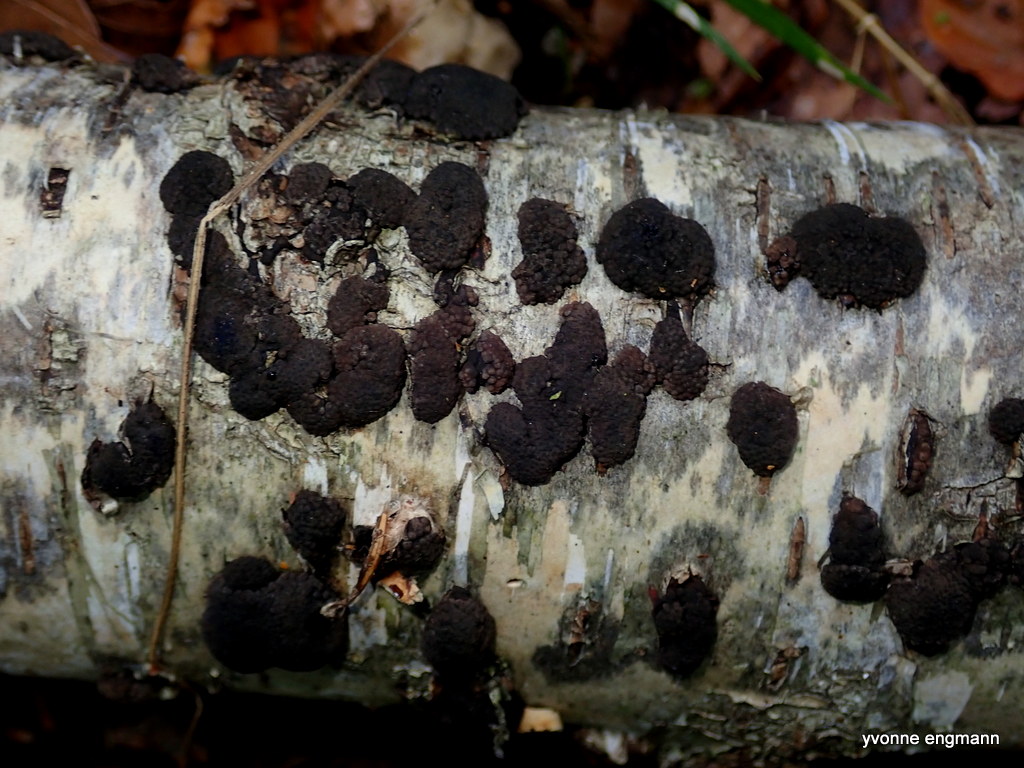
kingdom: Fungi
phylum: Ascomycota
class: Sordariomycetes
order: Xylariales
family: Hypoxylaceae
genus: Jackrogersella
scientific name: Jackrogersella multiformis
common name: foranderlig kulbær
